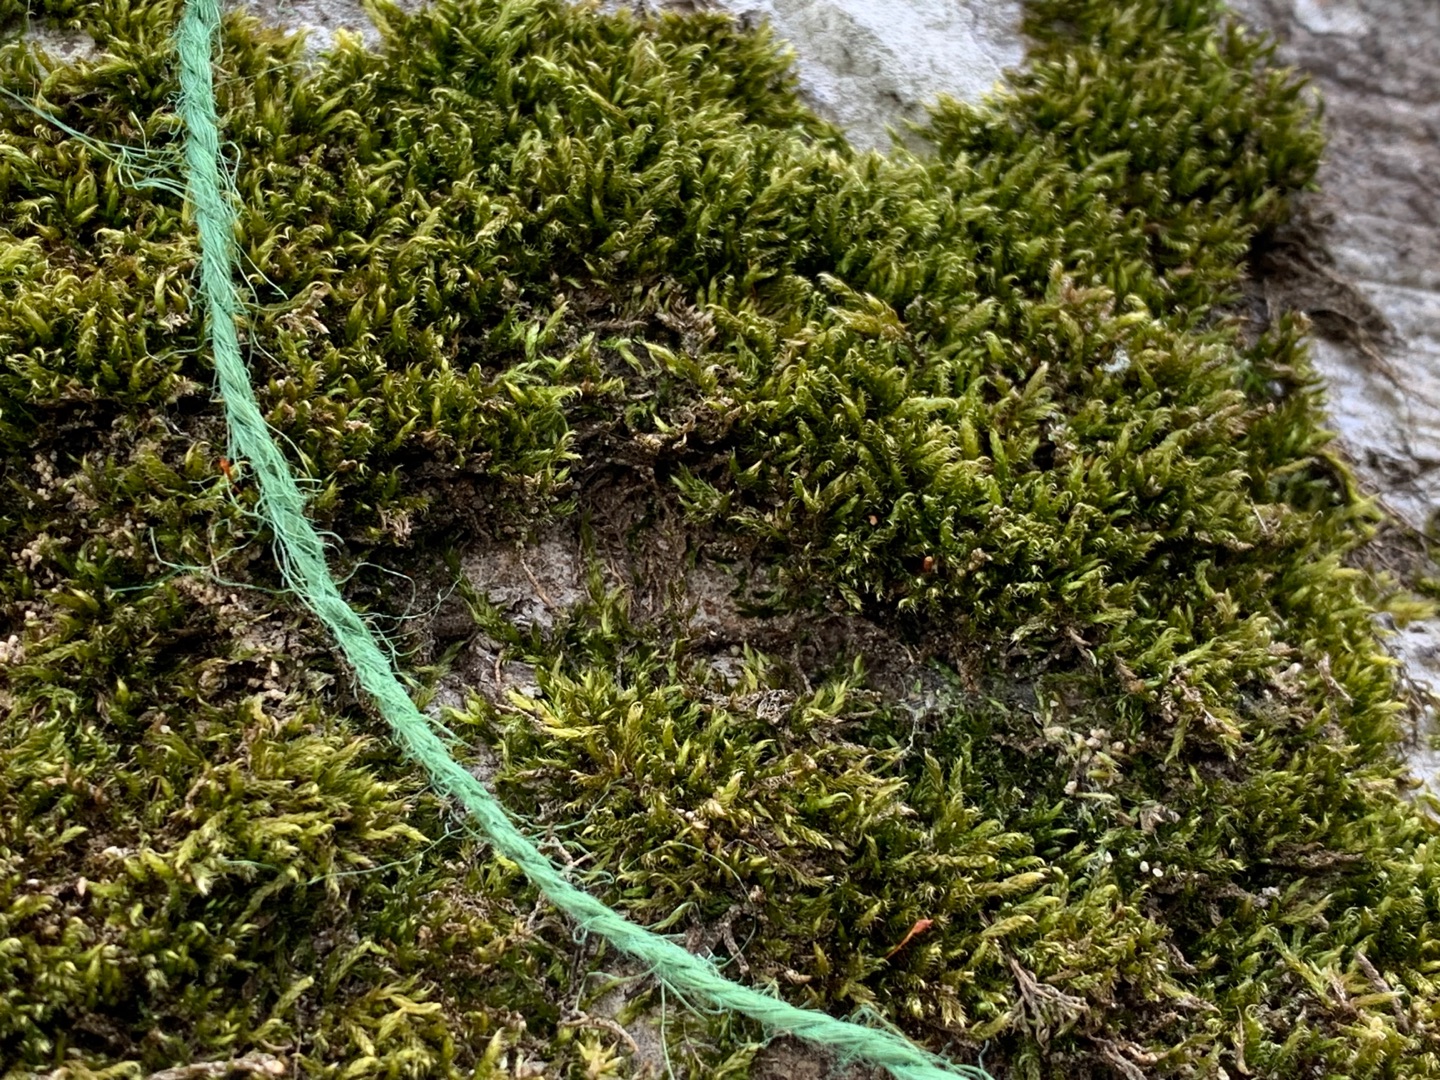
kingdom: Plantae
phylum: Bryophyta
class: Bryopsida
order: Hypnales
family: Hypnaceae
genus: Hypnum
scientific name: Hypnum cupressiforme
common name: Almindelig cypresmos
